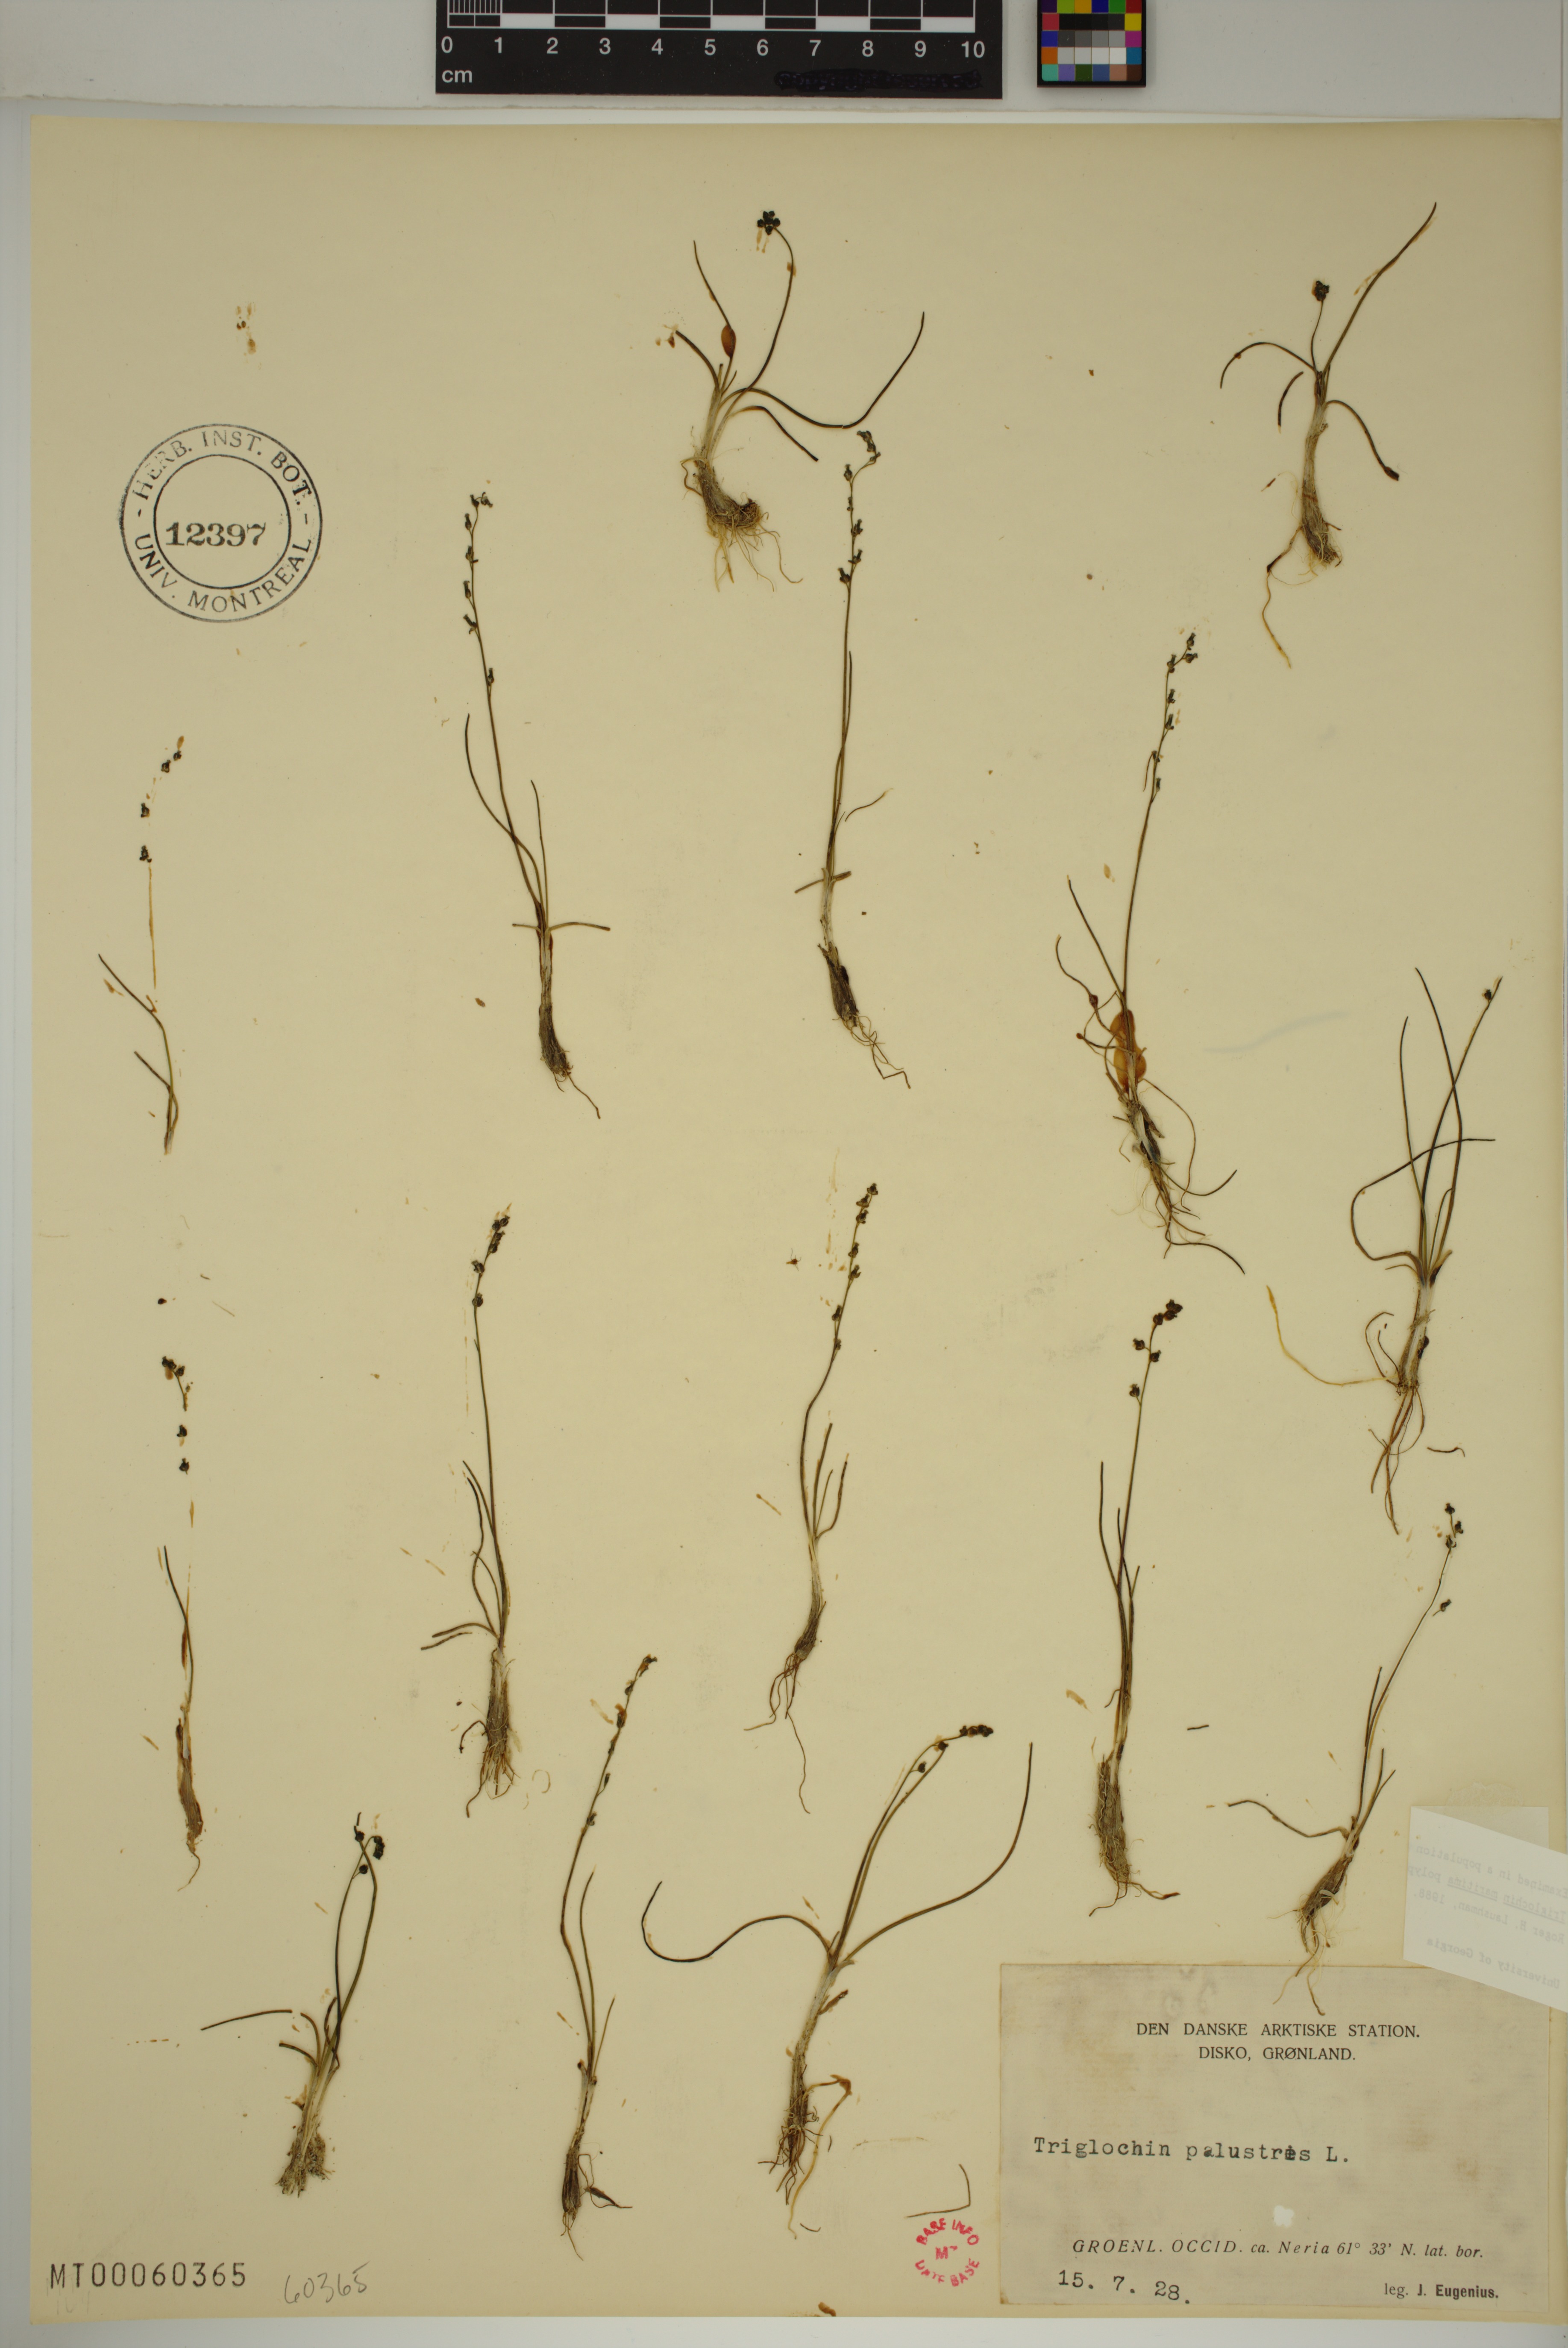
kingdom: Plantae
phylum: Tracheophyta
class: Liliopsida
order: Alismatales
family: Juncaginaceae
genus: Triglochin
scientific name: Triglochin palustris
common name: Marsh arrowgrass
